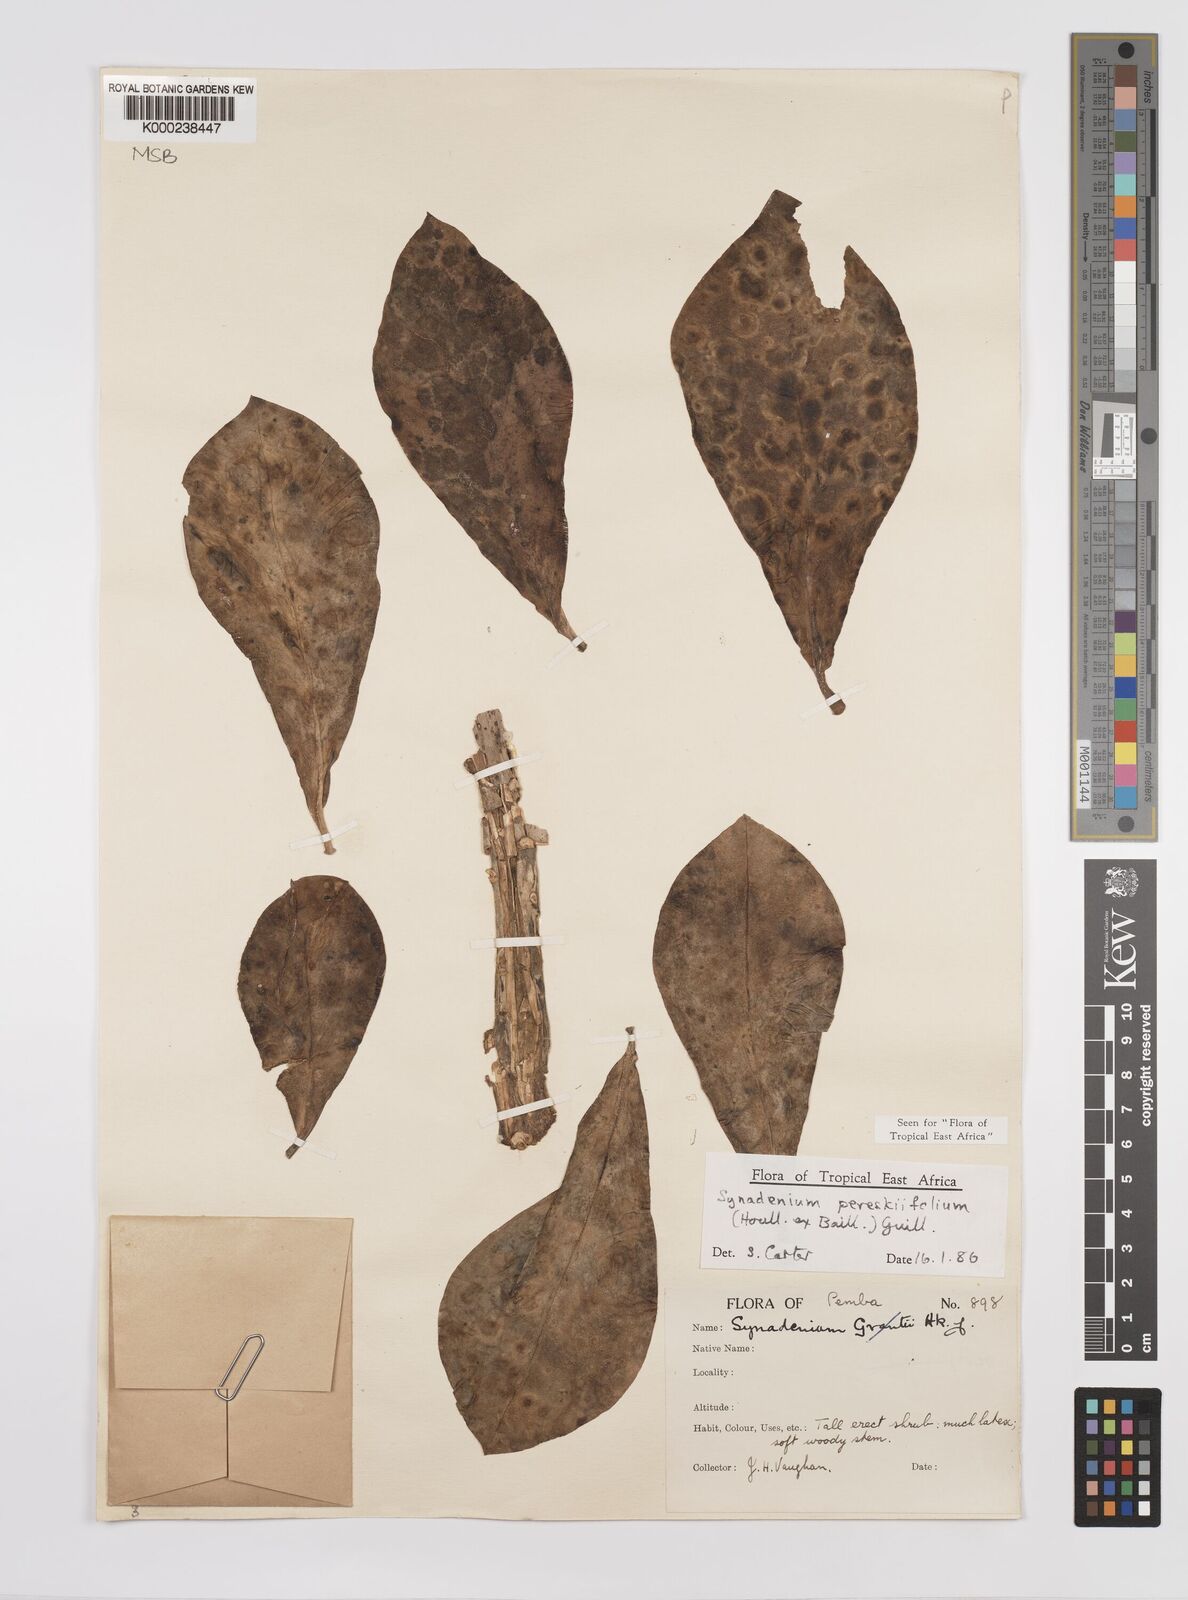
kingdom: Plantae
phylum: Tracheophyta
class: Magnoliopsida
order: Malpighiales
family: Euphorbiaceae
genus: Euphorbia
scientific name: Euphorbia pereskiifolia
